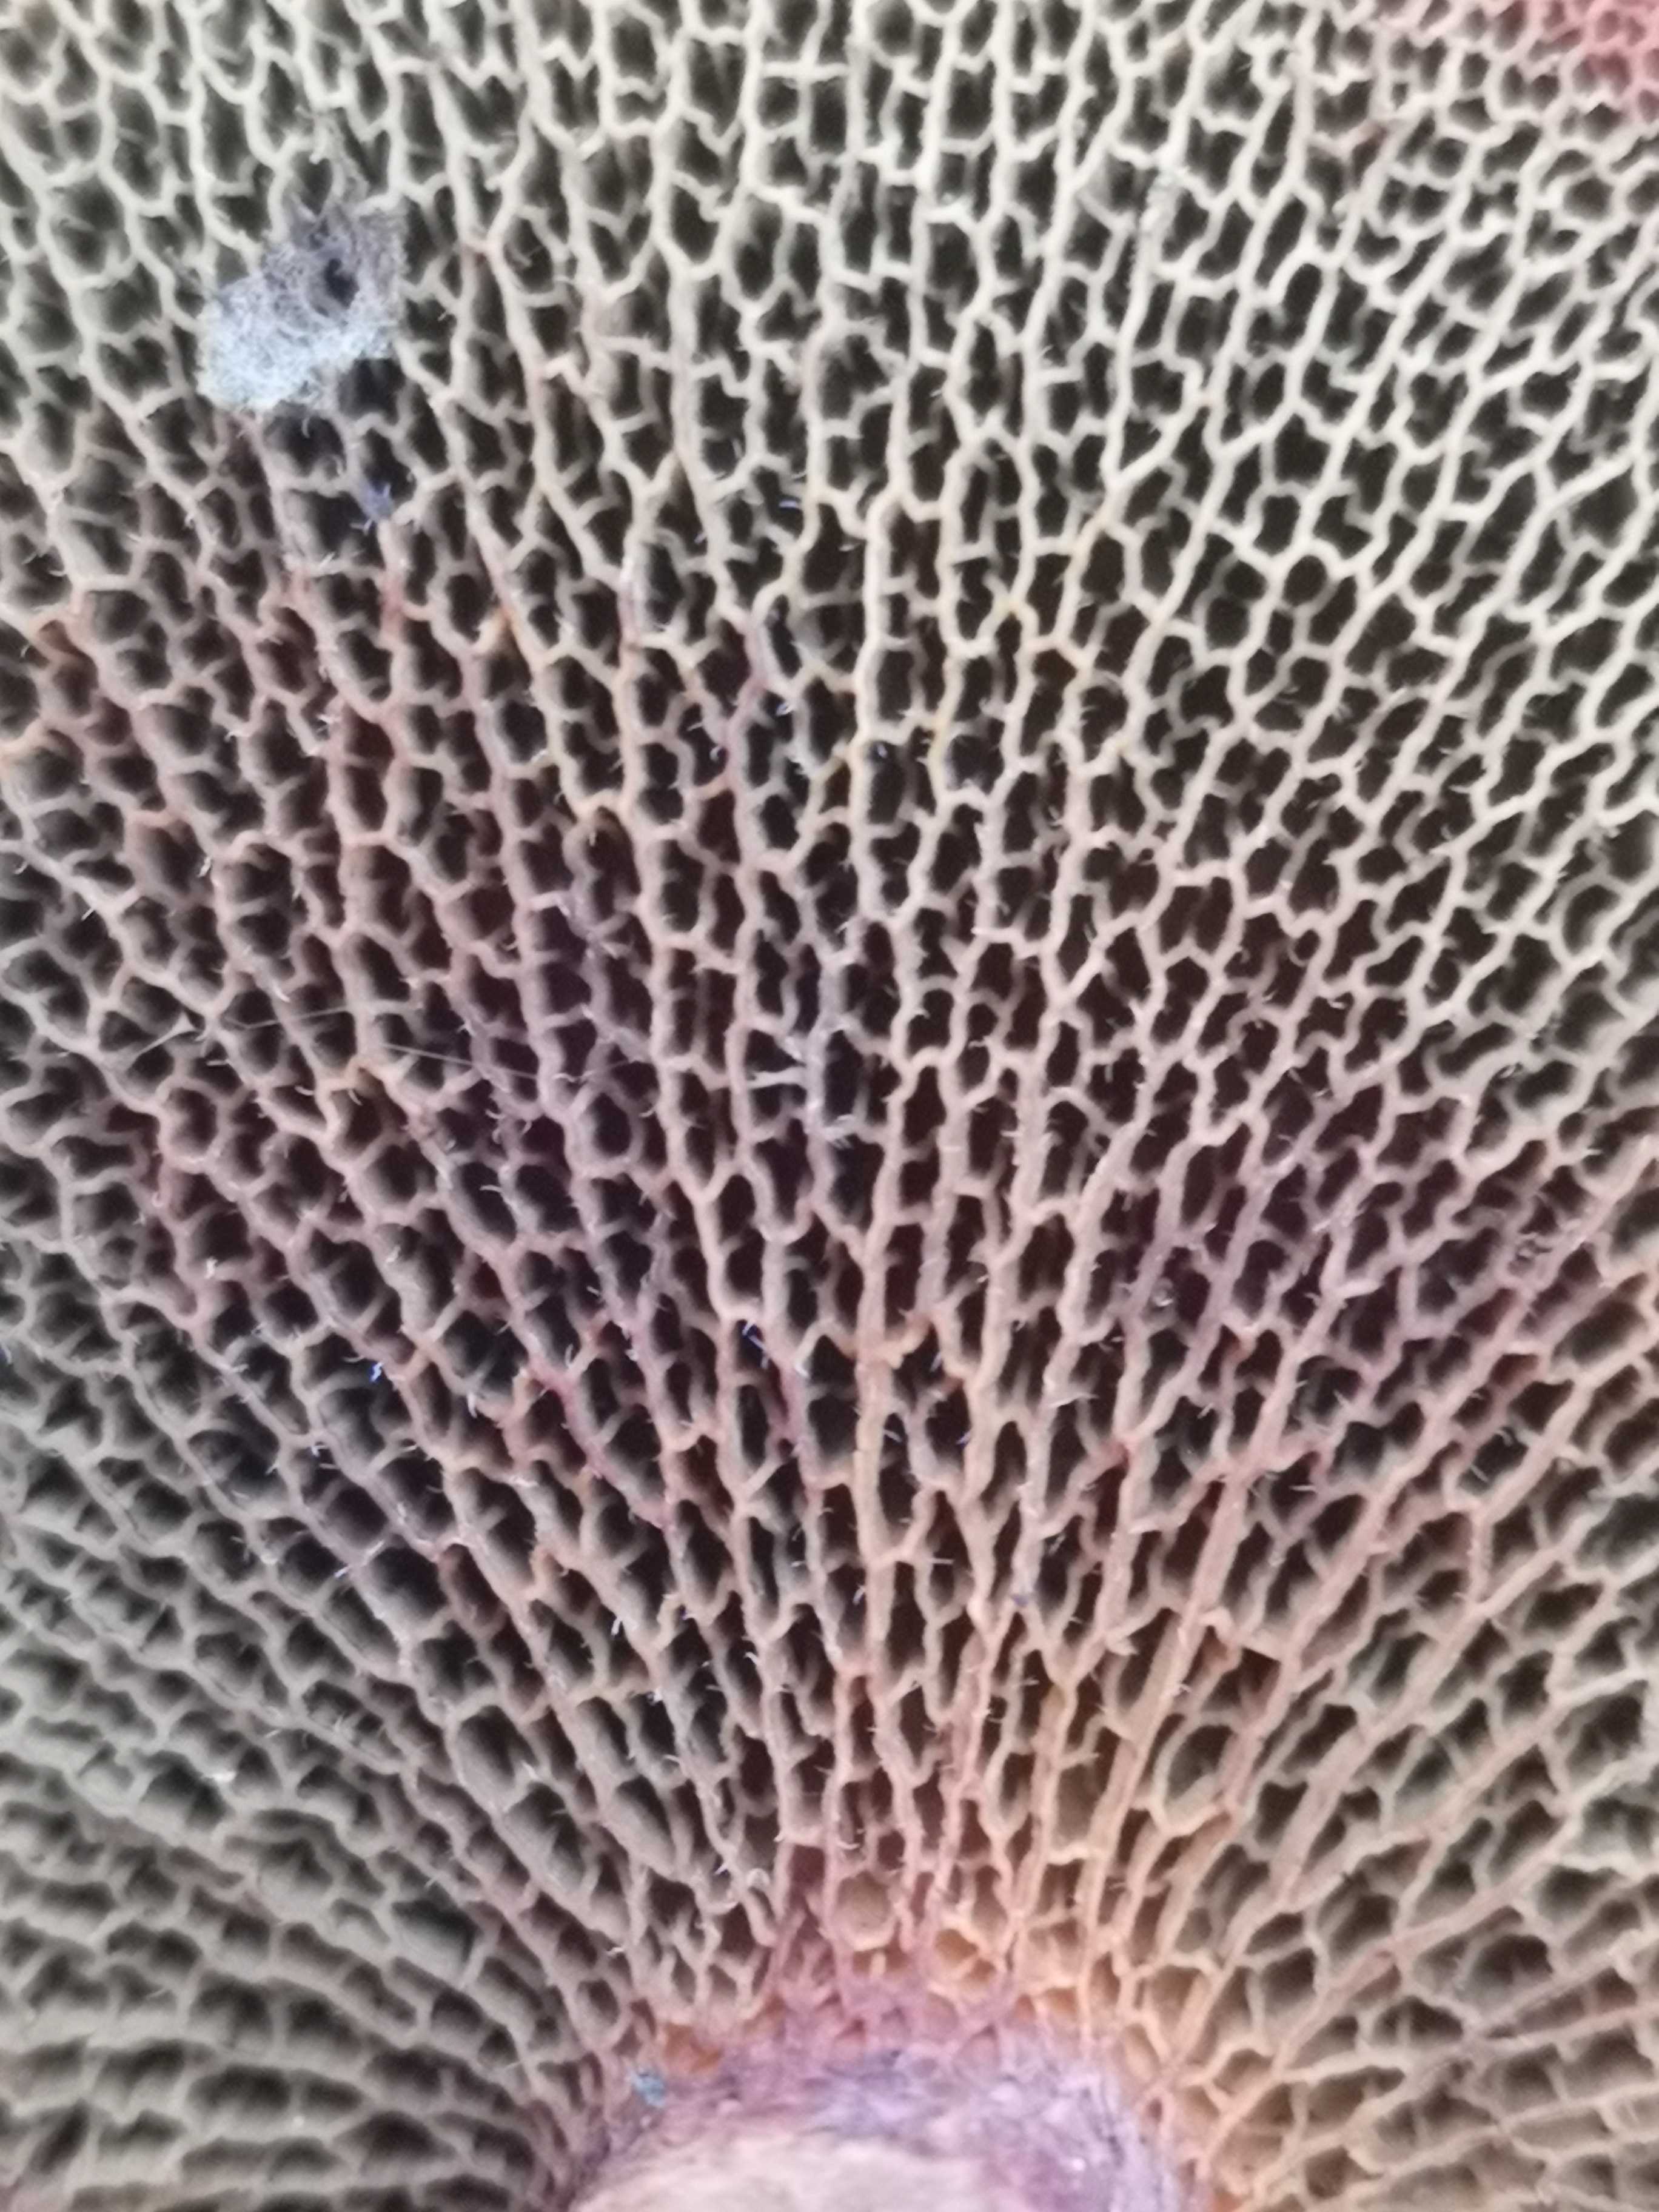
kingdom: Fungi
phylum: Basidiomycota
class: Agaricomycetes
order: Boletales
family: Suillaceae
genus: Suillus
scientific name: Suillus cavipes
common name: hulstokket slimrørhat
